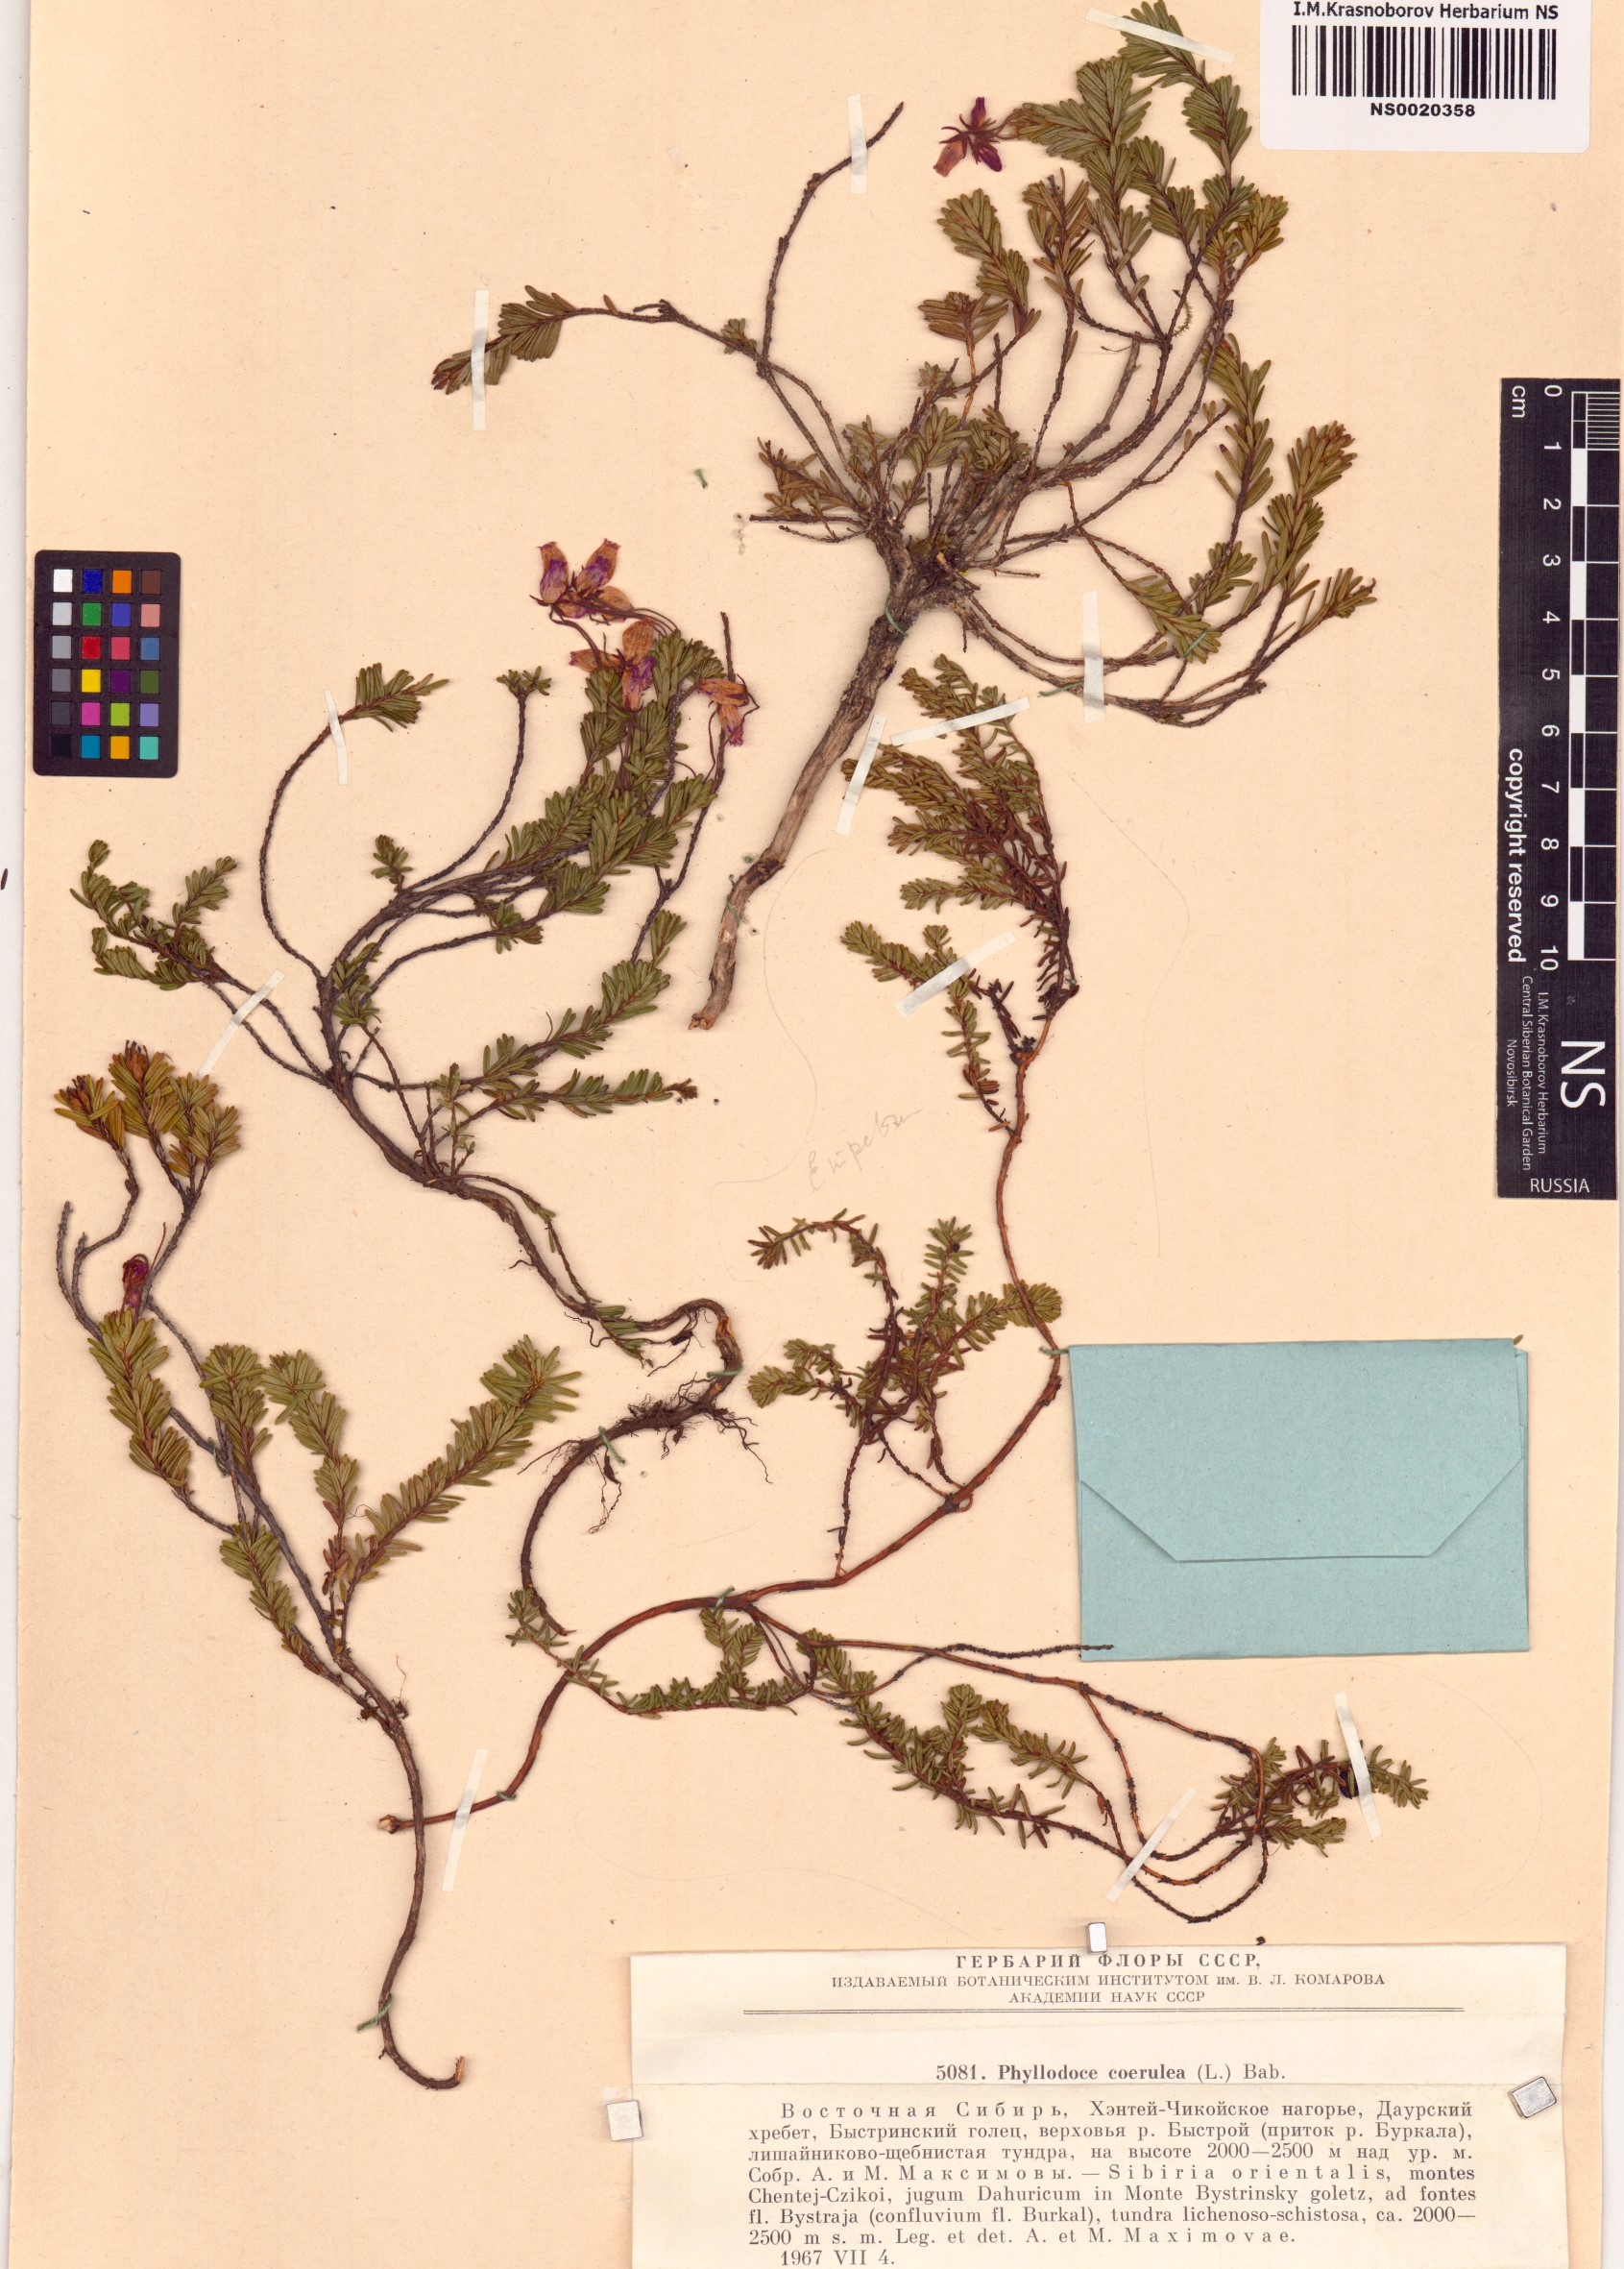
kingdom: Plantae
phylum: Tracheophyta
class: Magnoliopsida
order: Ericales
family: Ericaceae
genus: Phyllodoce
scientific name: Phyllodoce caerulea
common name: Blue heath
